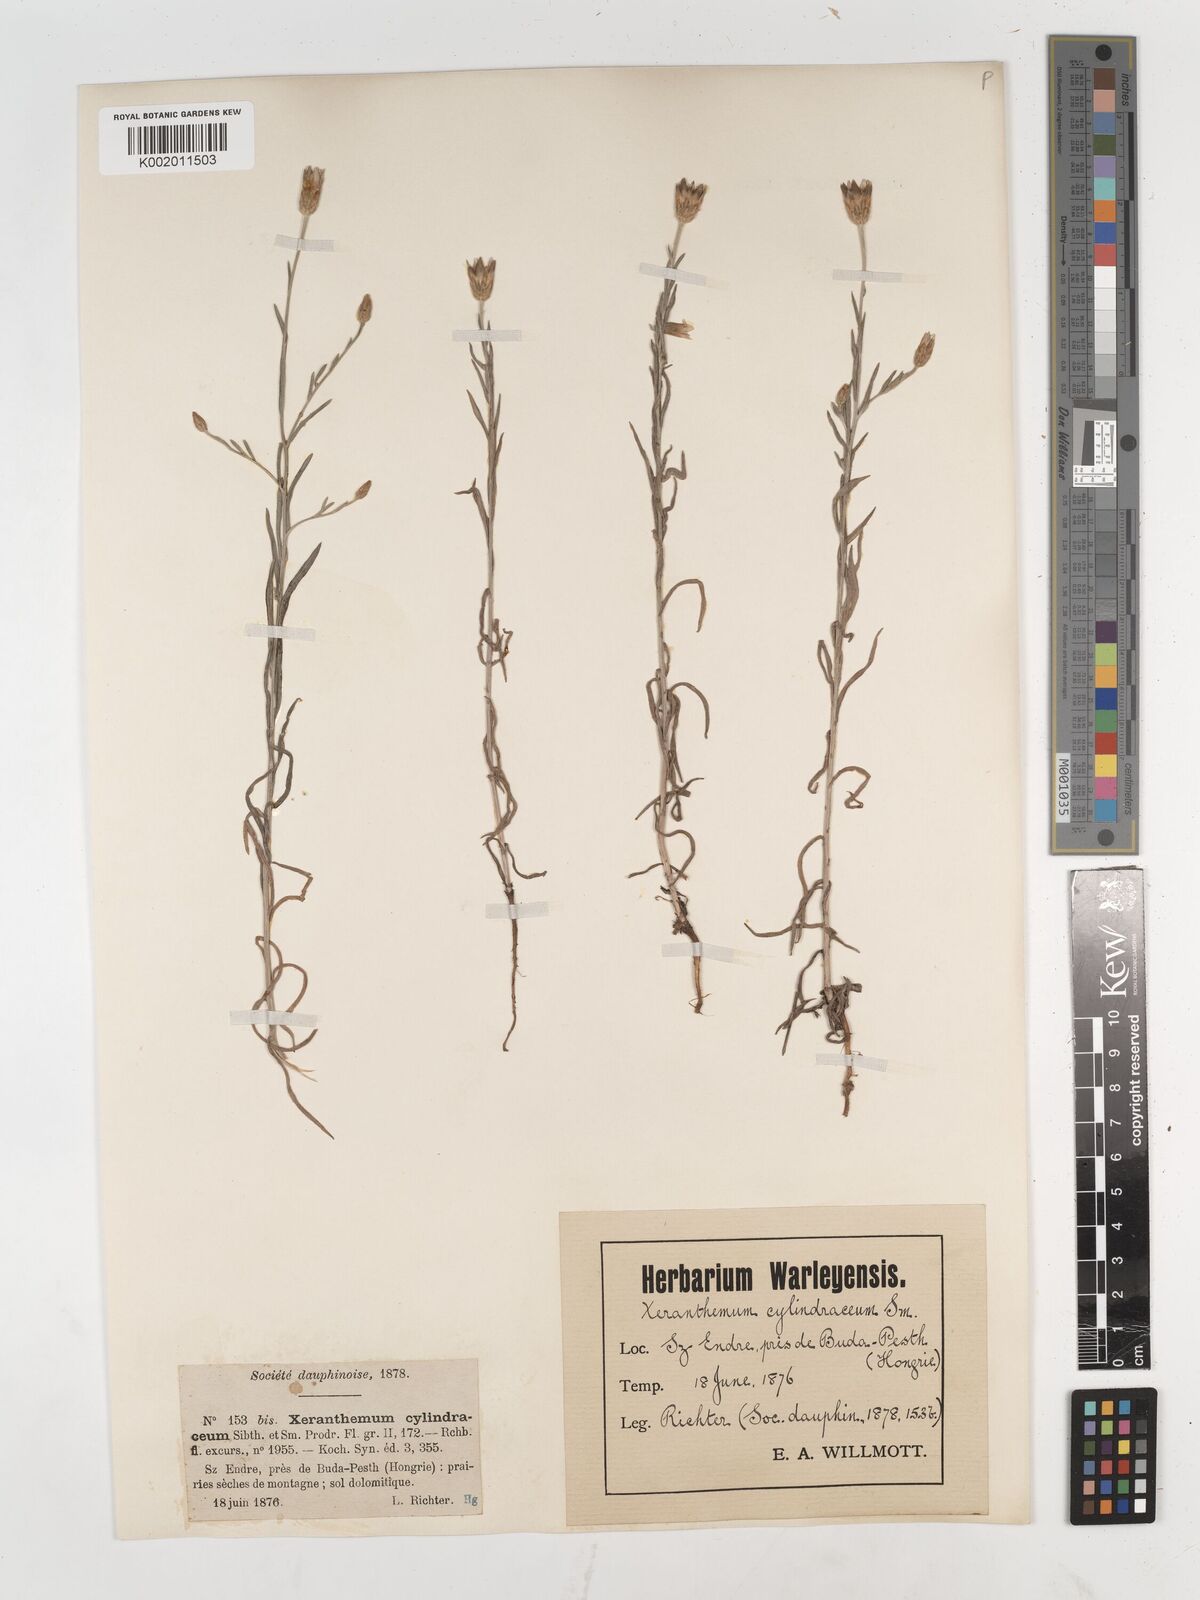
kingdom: Plantae
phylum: Tracheophyta
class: Magnoliopsida
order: Asterales
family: Asteraceae
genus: Xeranthemum
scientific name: Xeranthemum cylindraceum
